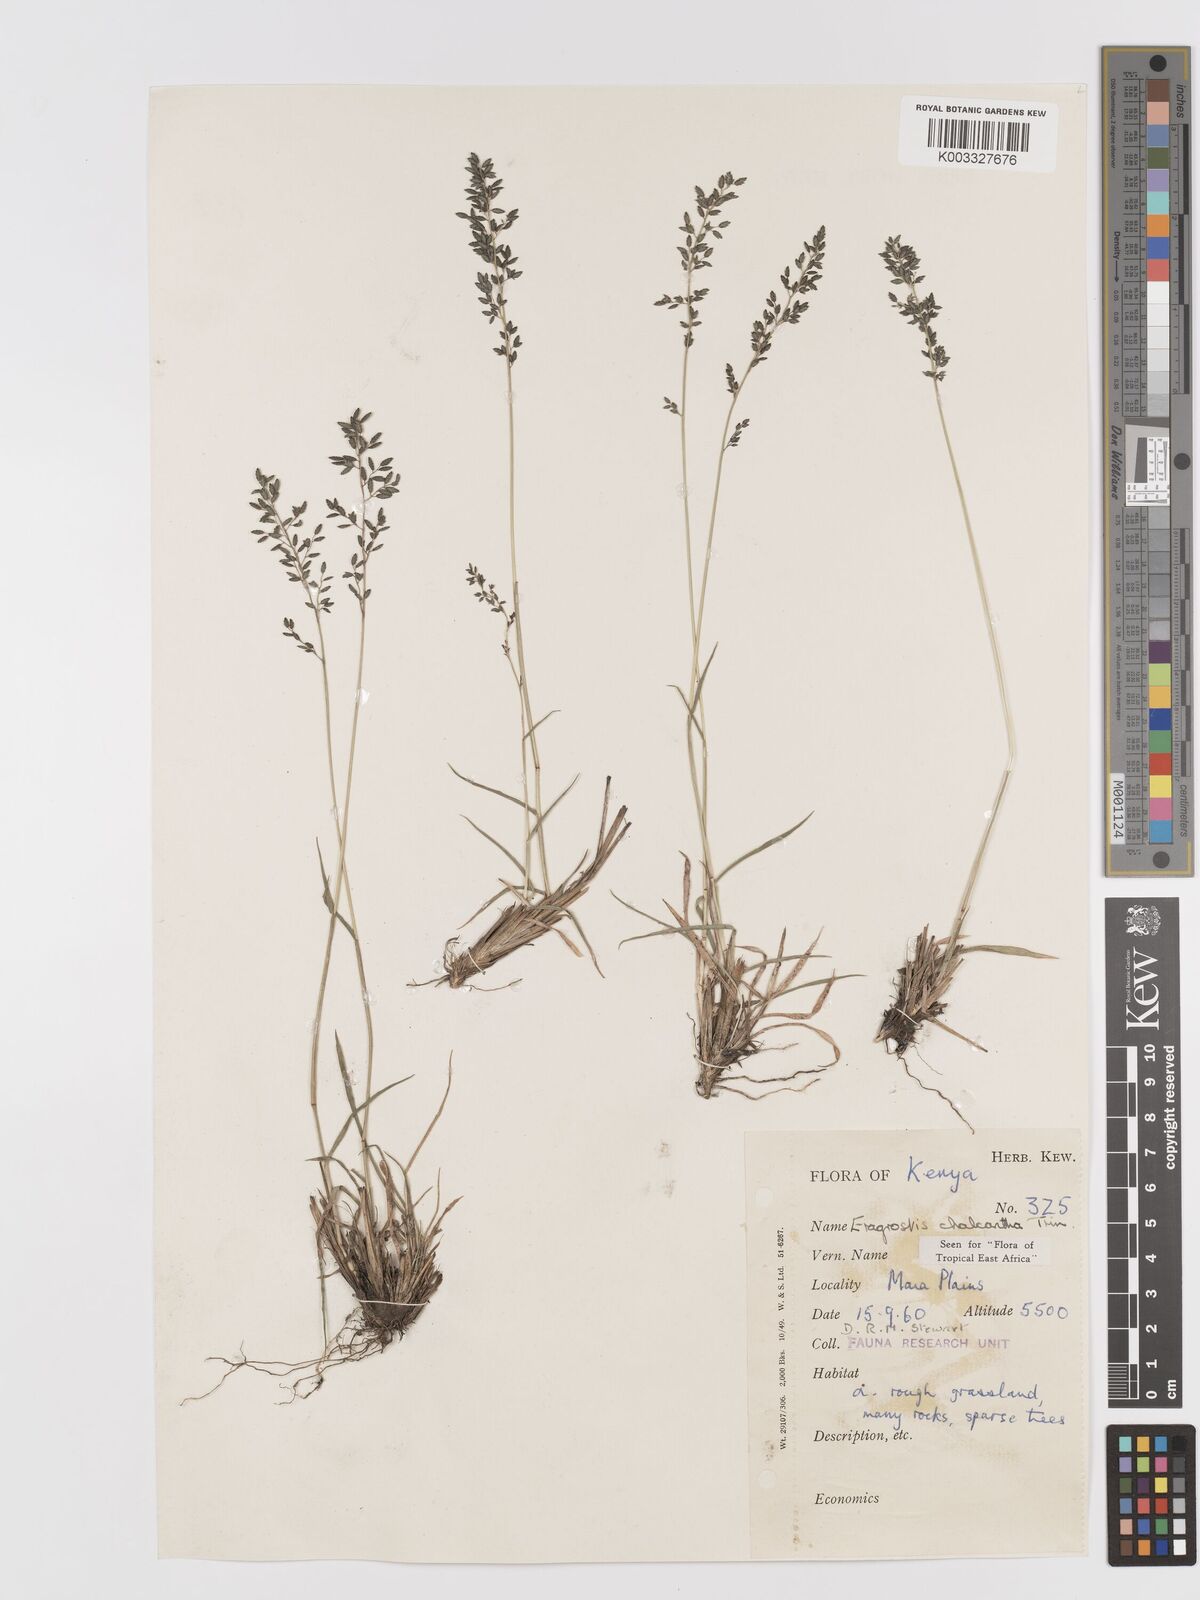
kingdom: Plantae
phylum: Tracheophyta
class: Liliopsida
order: Poales
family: Poaceae
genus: Eragrostis
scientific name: Eragrostis racemosa
